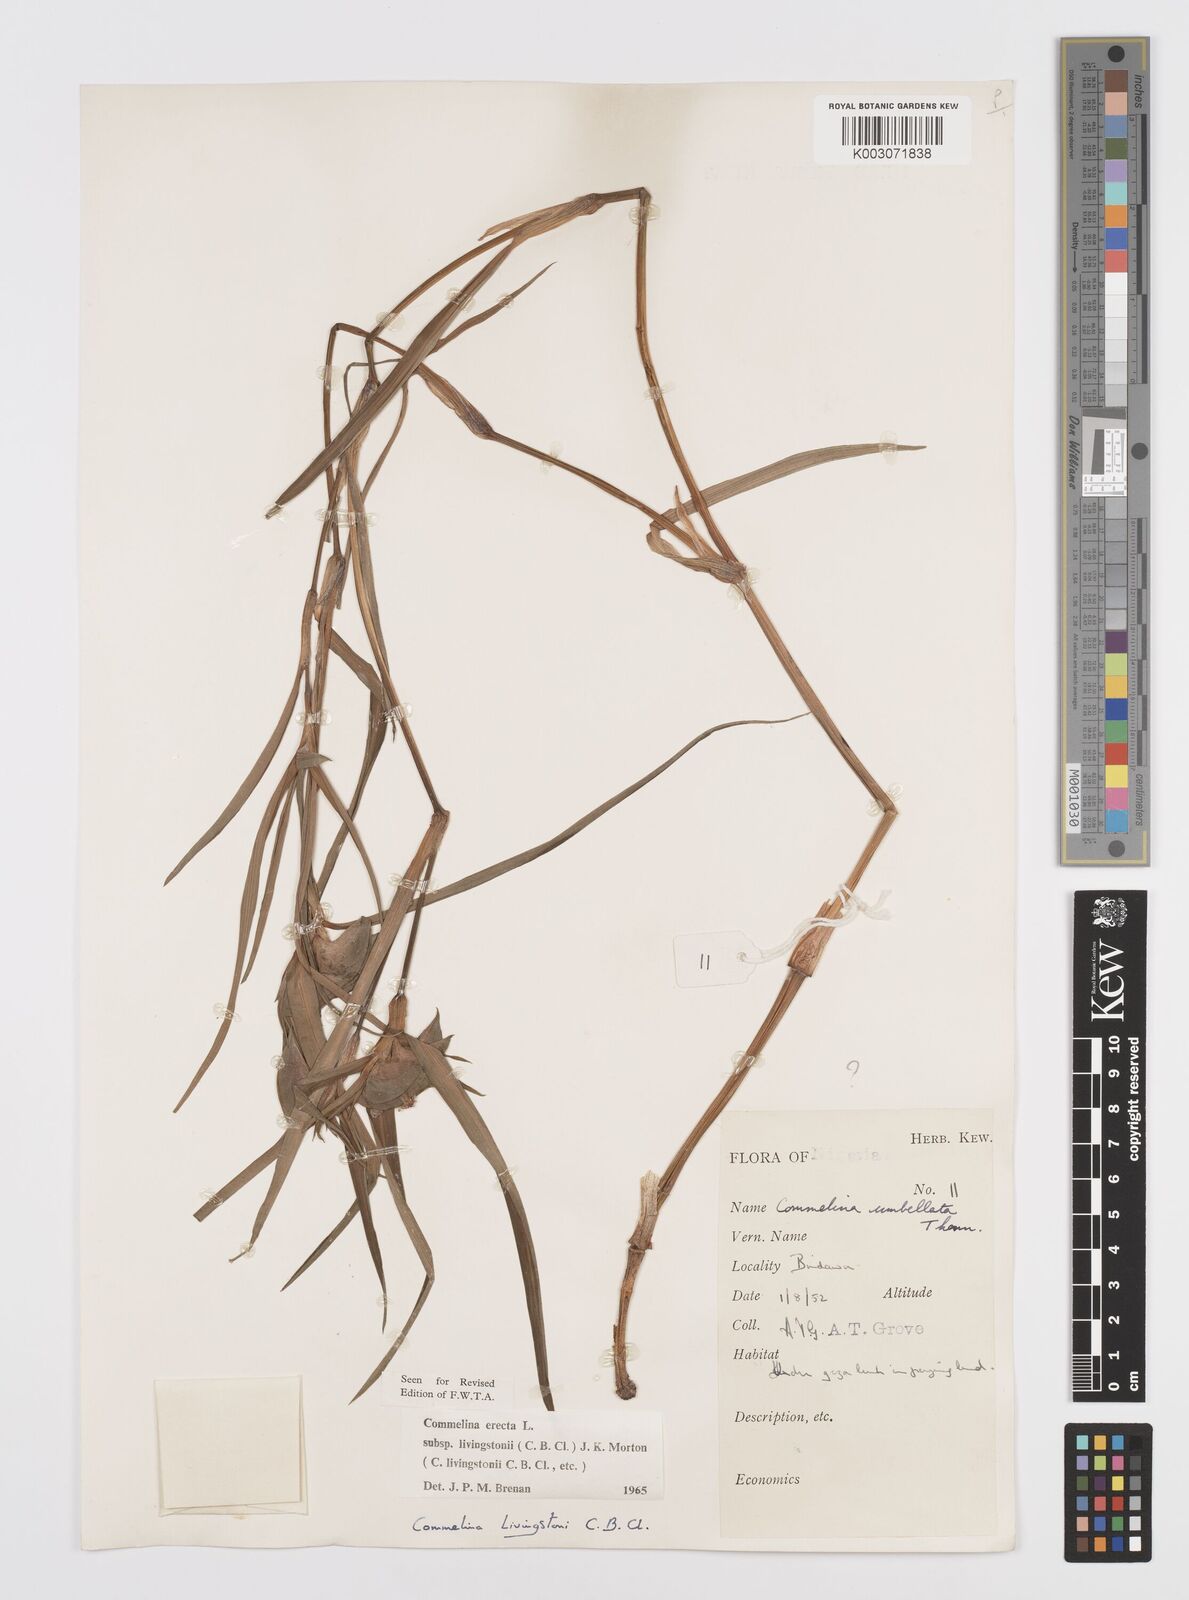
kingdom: Plantae
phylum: Tracheophyta
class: Liliopsida
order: Commelinales
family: Commelinaceae
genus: Commelina
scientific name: Commelina erecta
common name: Blousel blommetjie
